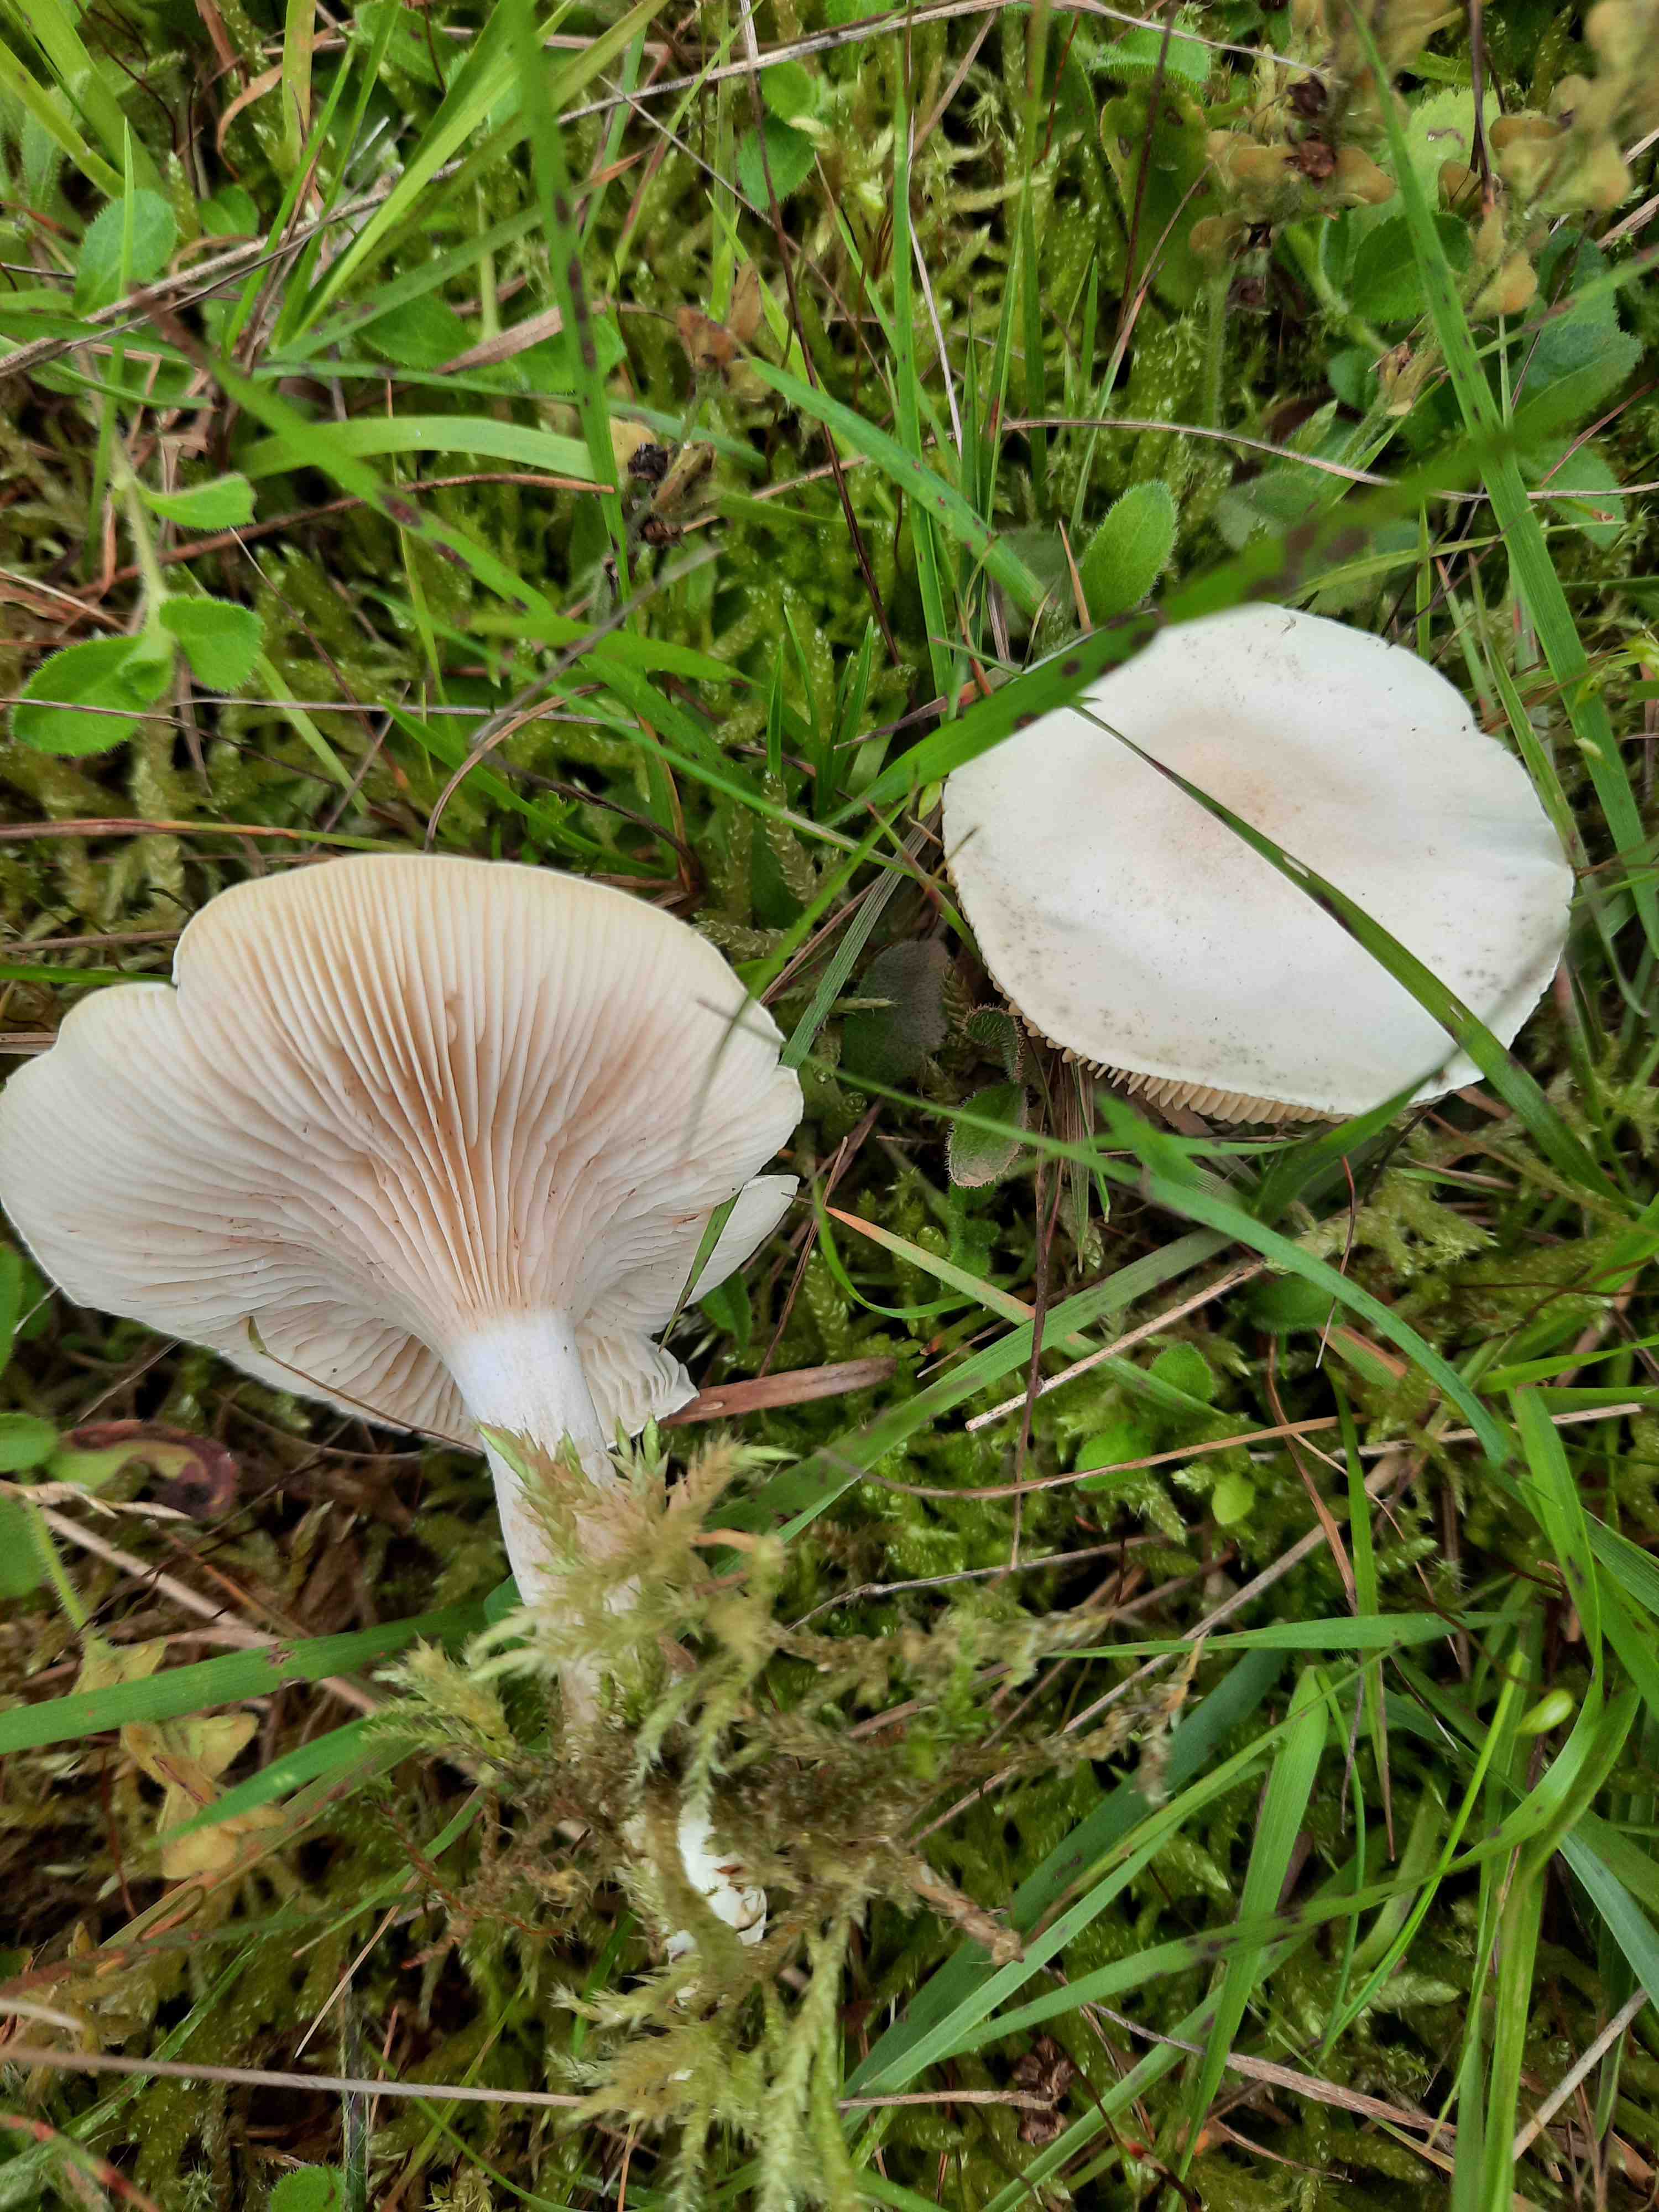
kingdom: Fungi
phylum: Basidiomycota
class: Agaricomycetes
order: Agaricales
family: Entolomataceae
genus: Clitopilus
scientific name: Clitopilus prunulus
